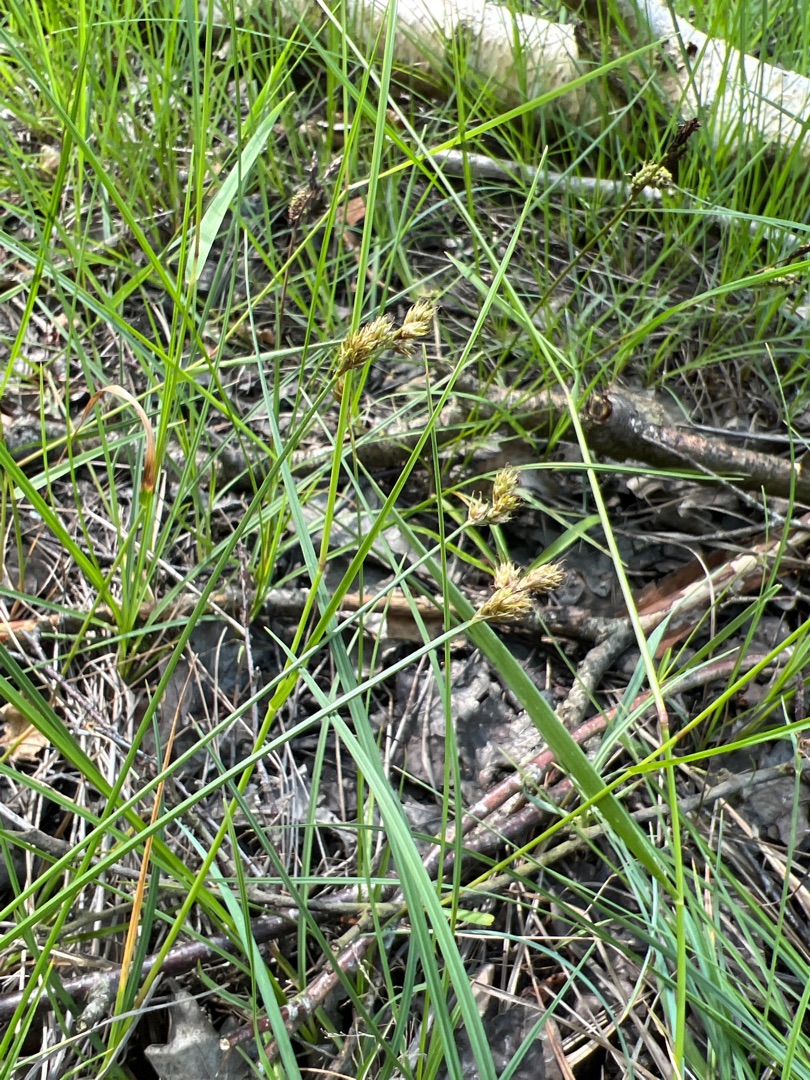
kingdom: Plantae
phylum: Tracheophyta
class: Liliopsida
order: Poales
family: Cyperaceae
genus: Carex
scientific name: Carex leporina
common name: Hare-star
